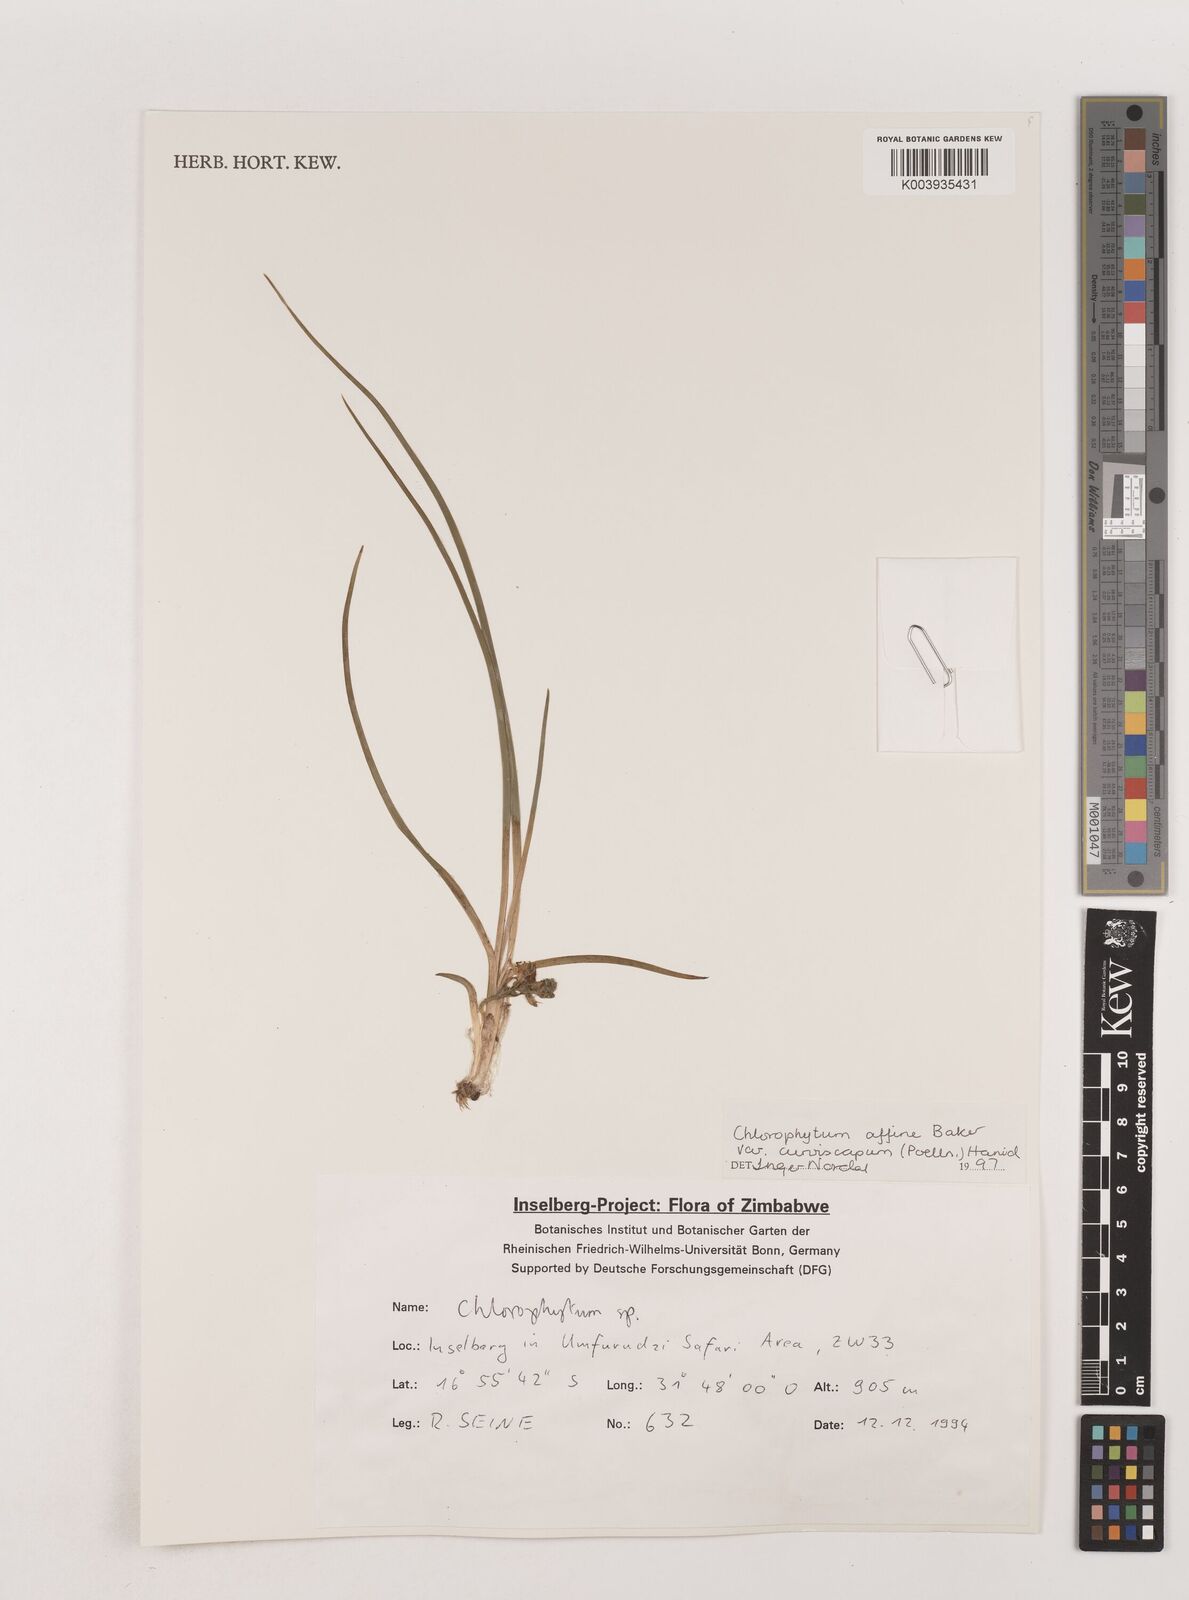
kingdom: Plantae
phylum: Tracheophyta
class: Liliopsida
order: Asparagales
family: Asparagaceae
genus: Chlorophytum
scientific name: Chlorophytum tordense
